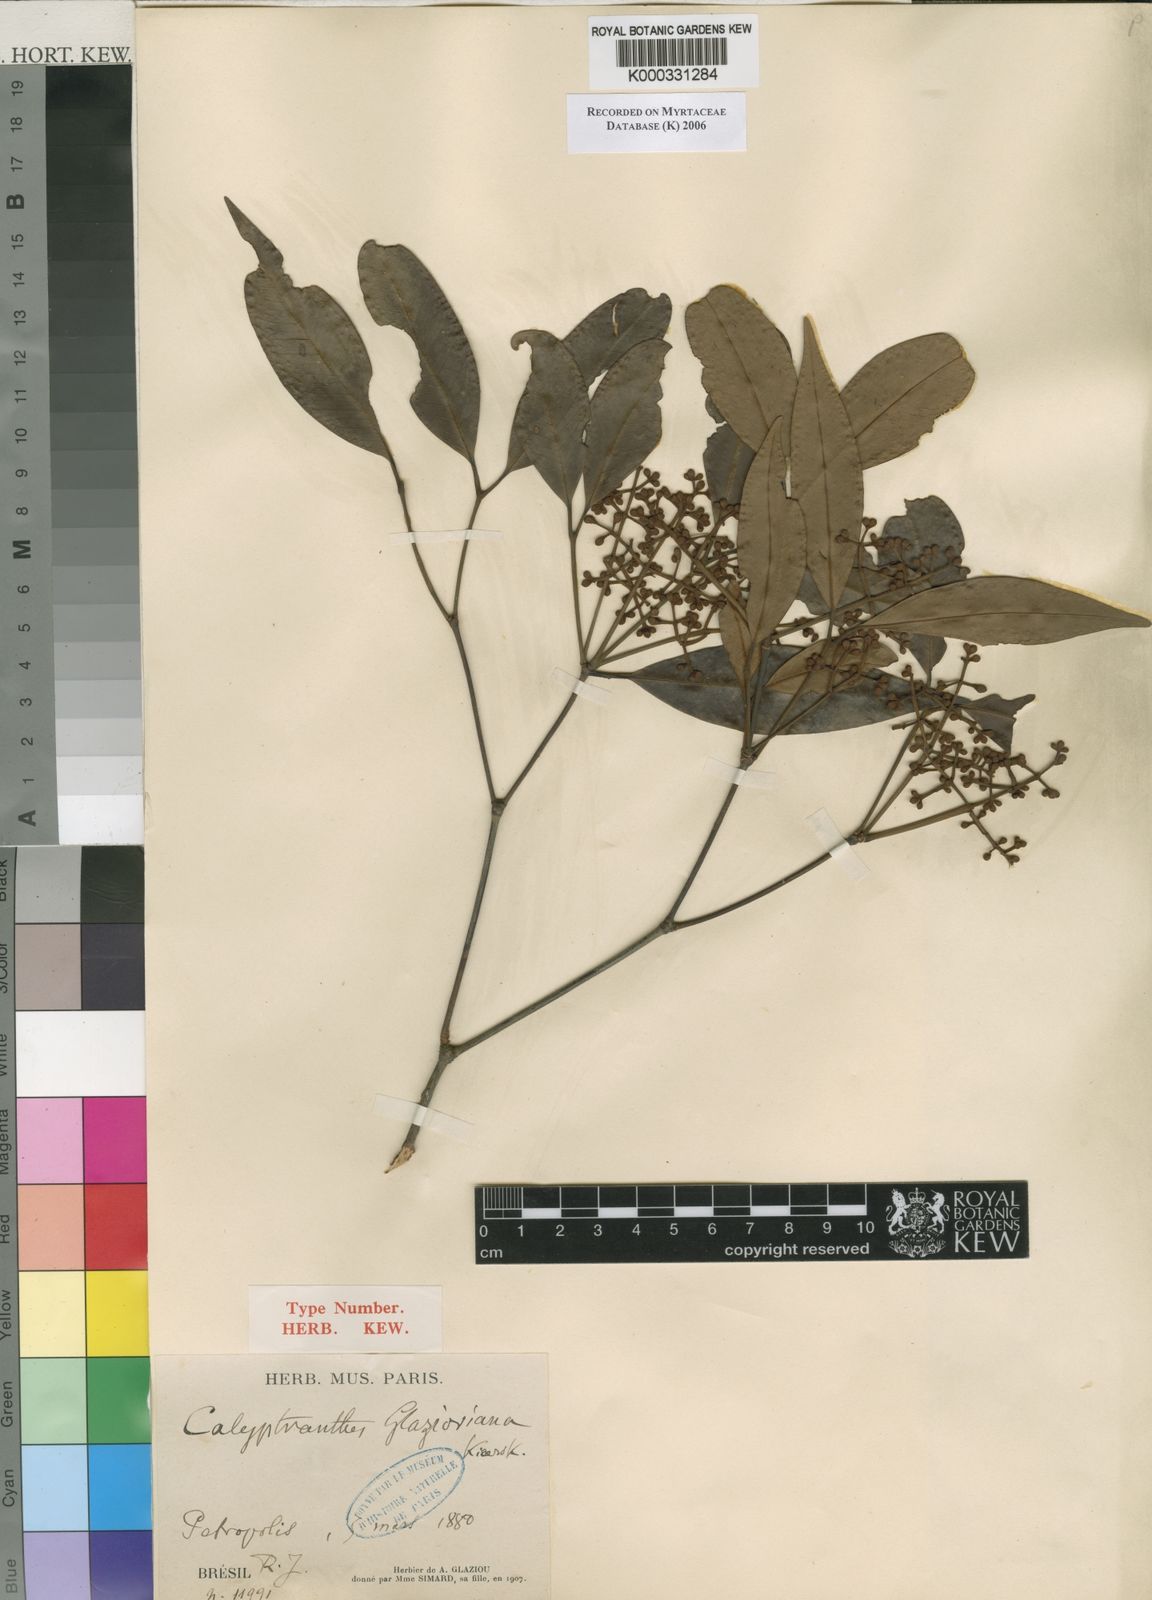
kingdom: Plantae
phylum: Tracheophyta
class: Magnoliopsida
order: Myrtales
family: Myrtaceae
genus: Calyptranthes
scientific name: Calyptranthes glazioviana
